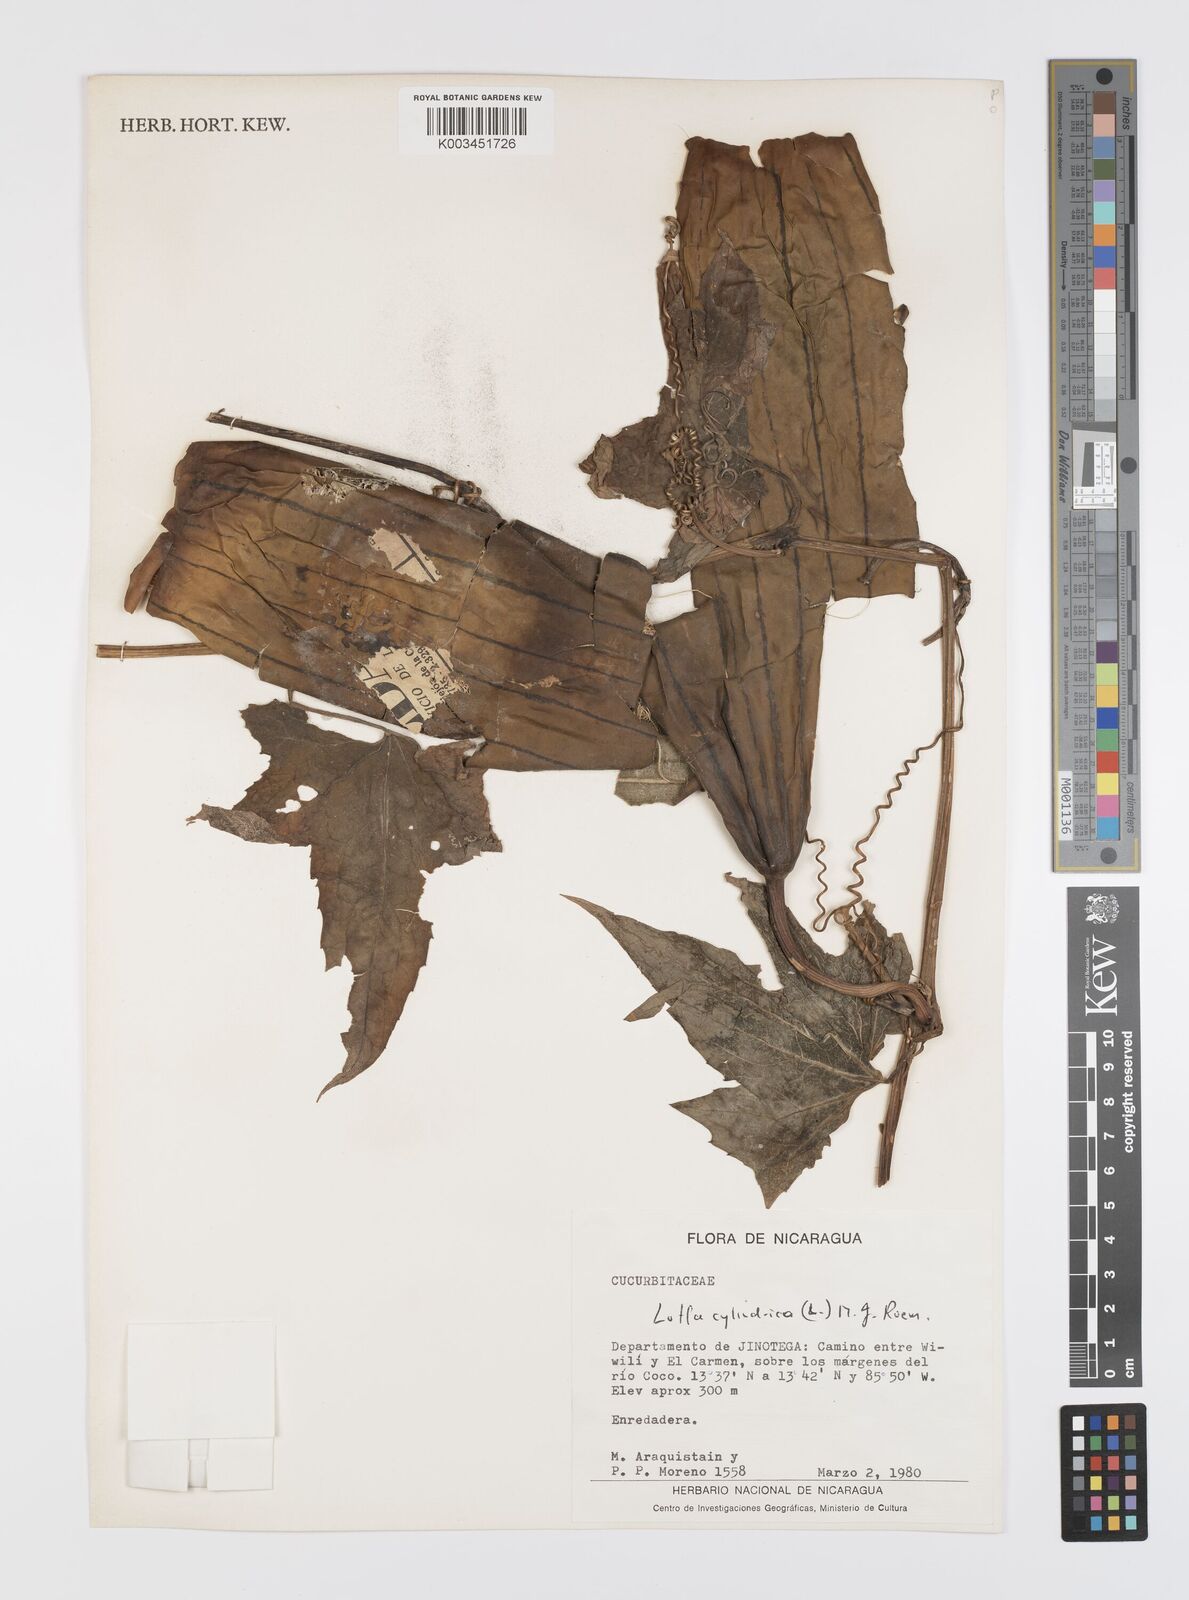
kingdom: Plantae
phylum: Tracheophyta
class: Magnoliopsida
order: Cucurbitales
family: Cucurbitaceae
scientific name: Cucurbitaceae
